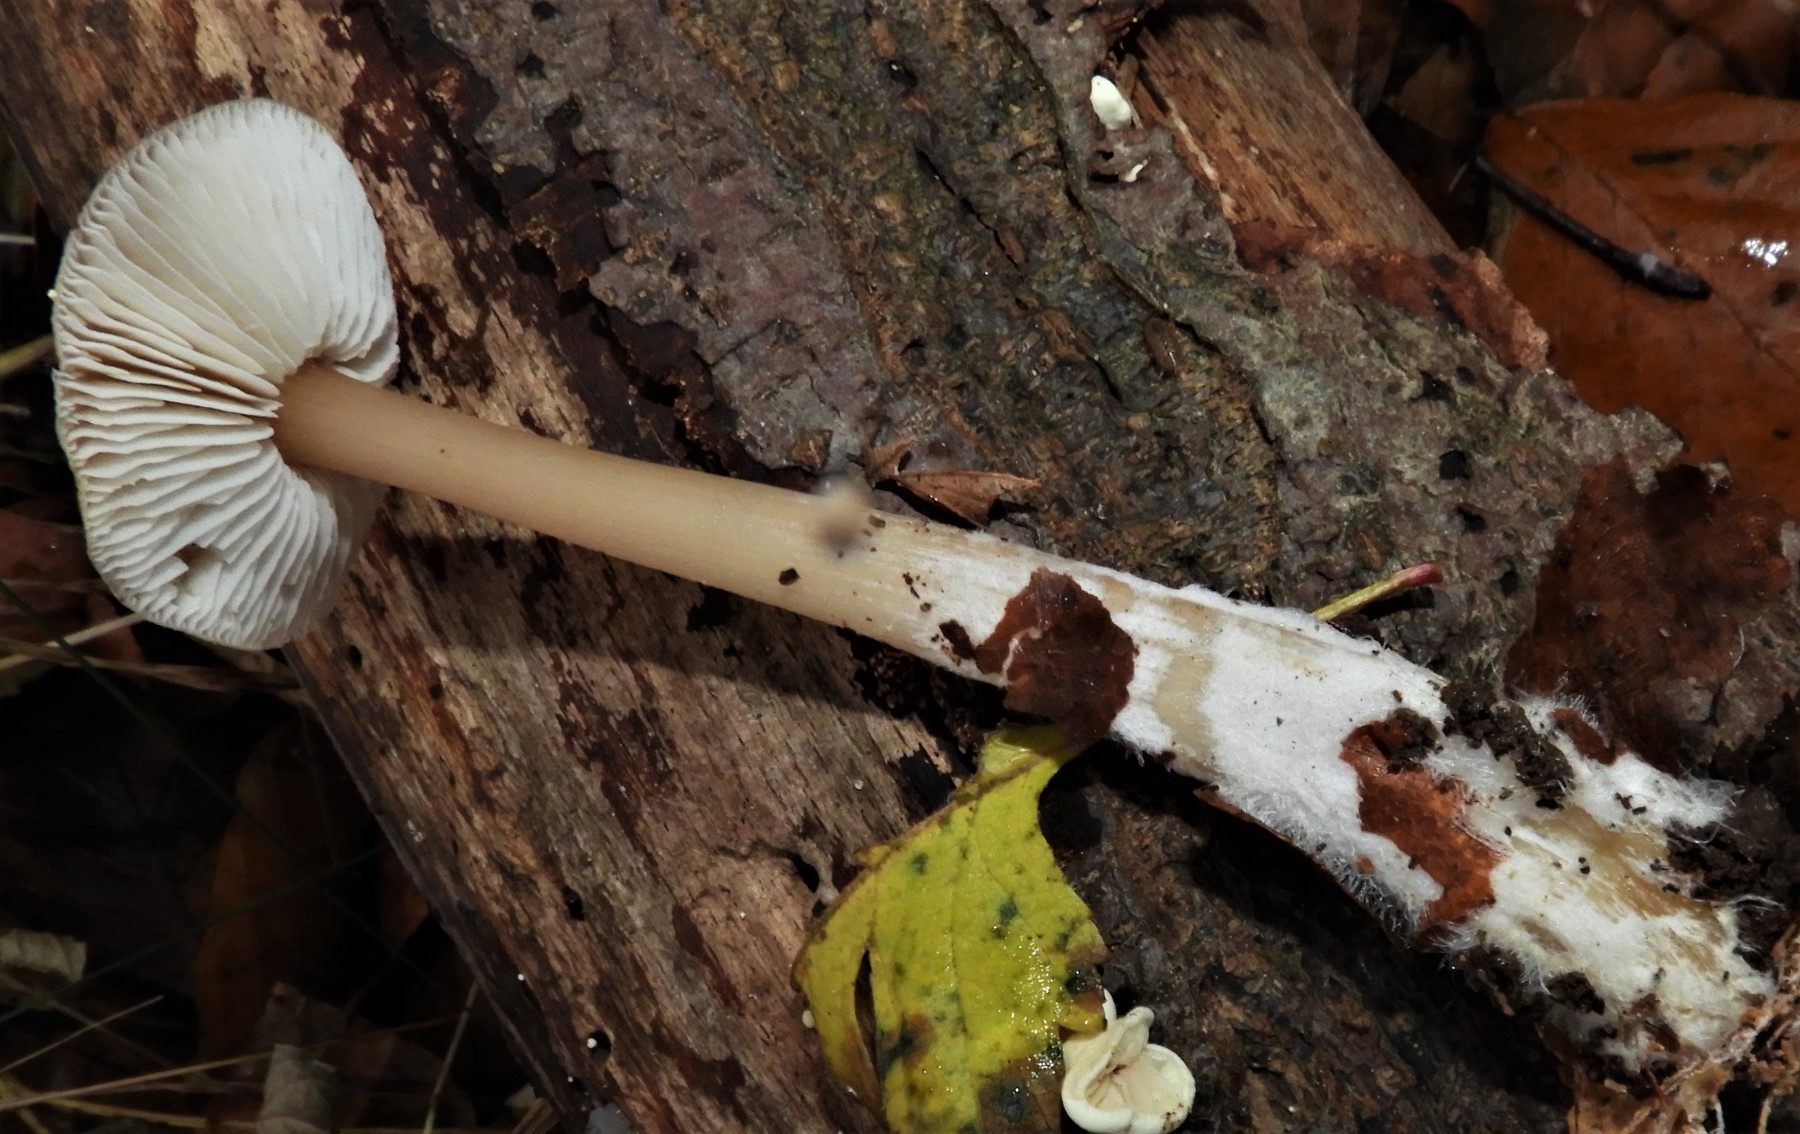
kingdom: Fungi
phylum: Basidiomycota
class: Agaricomycetes
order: Agaricales
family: Omphalotaceae
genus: Rhodocollybia
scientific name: Rhodocollybia asema
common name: horngrå fladhat
